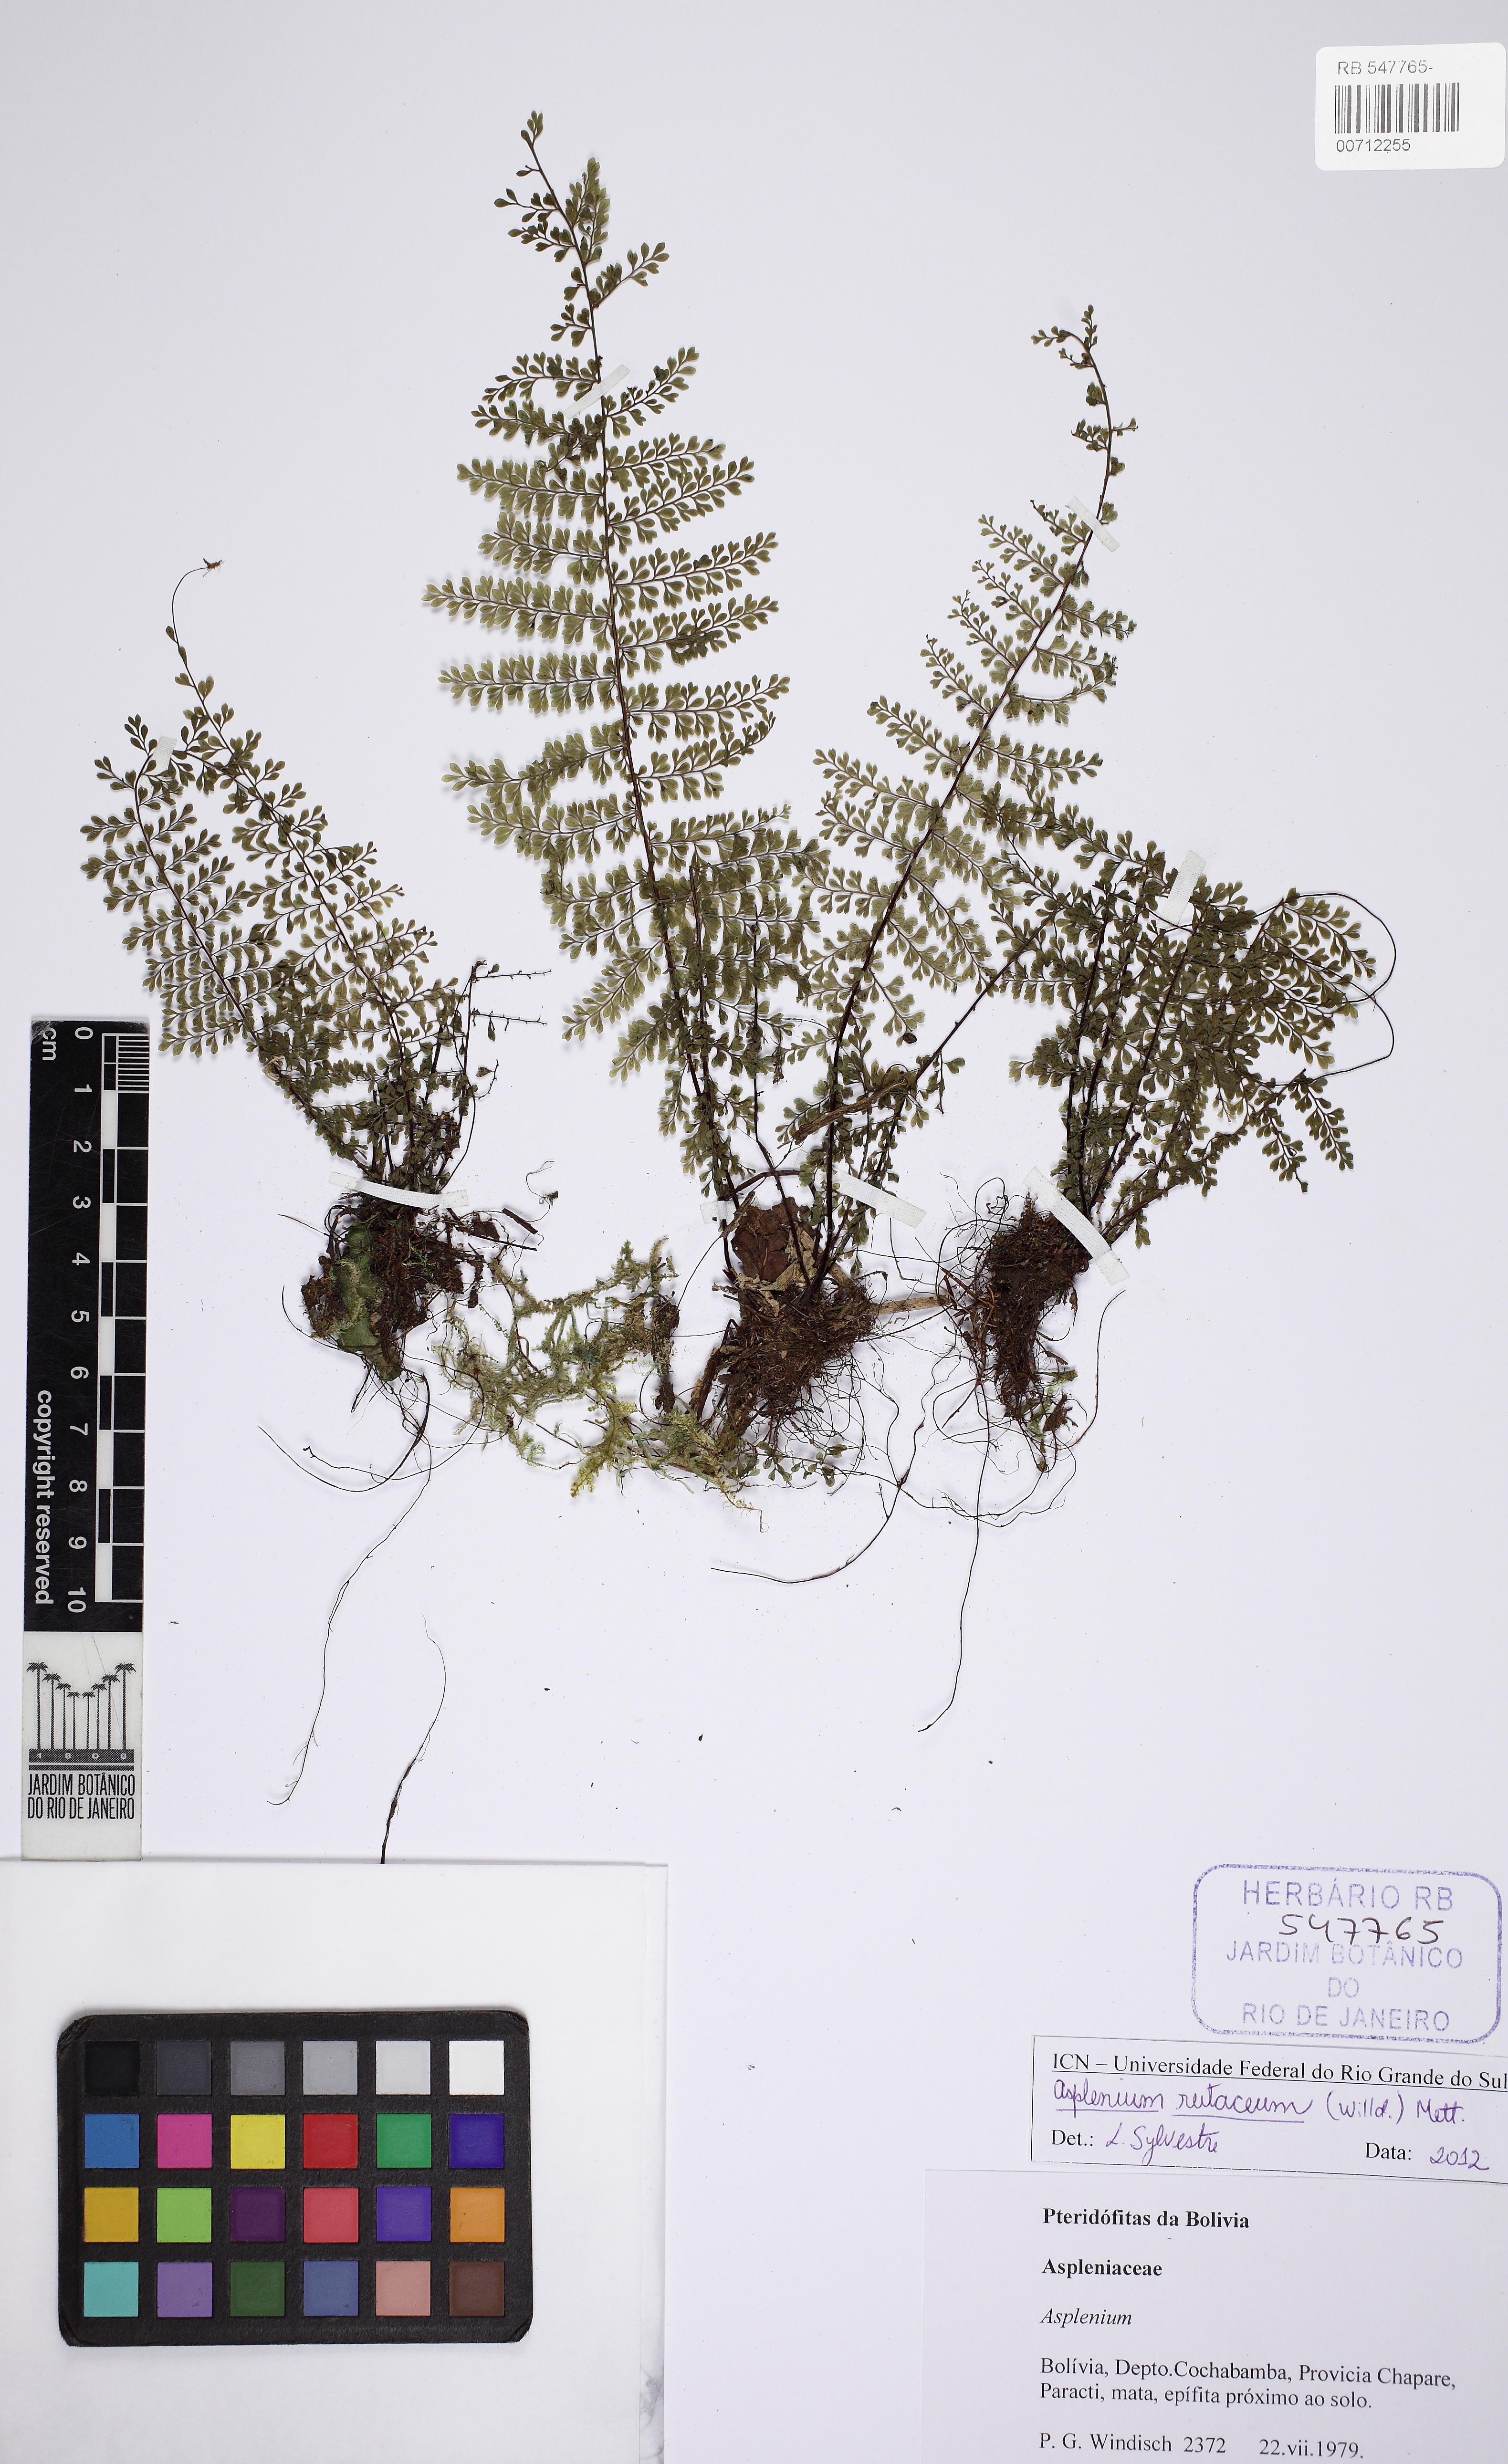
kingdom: Plantae
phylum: Tracheophyta
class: Polypodiopsida
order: Polypodiales
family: Aspleniaceae
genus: Asplenium
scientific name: Asplenium rutaceum
